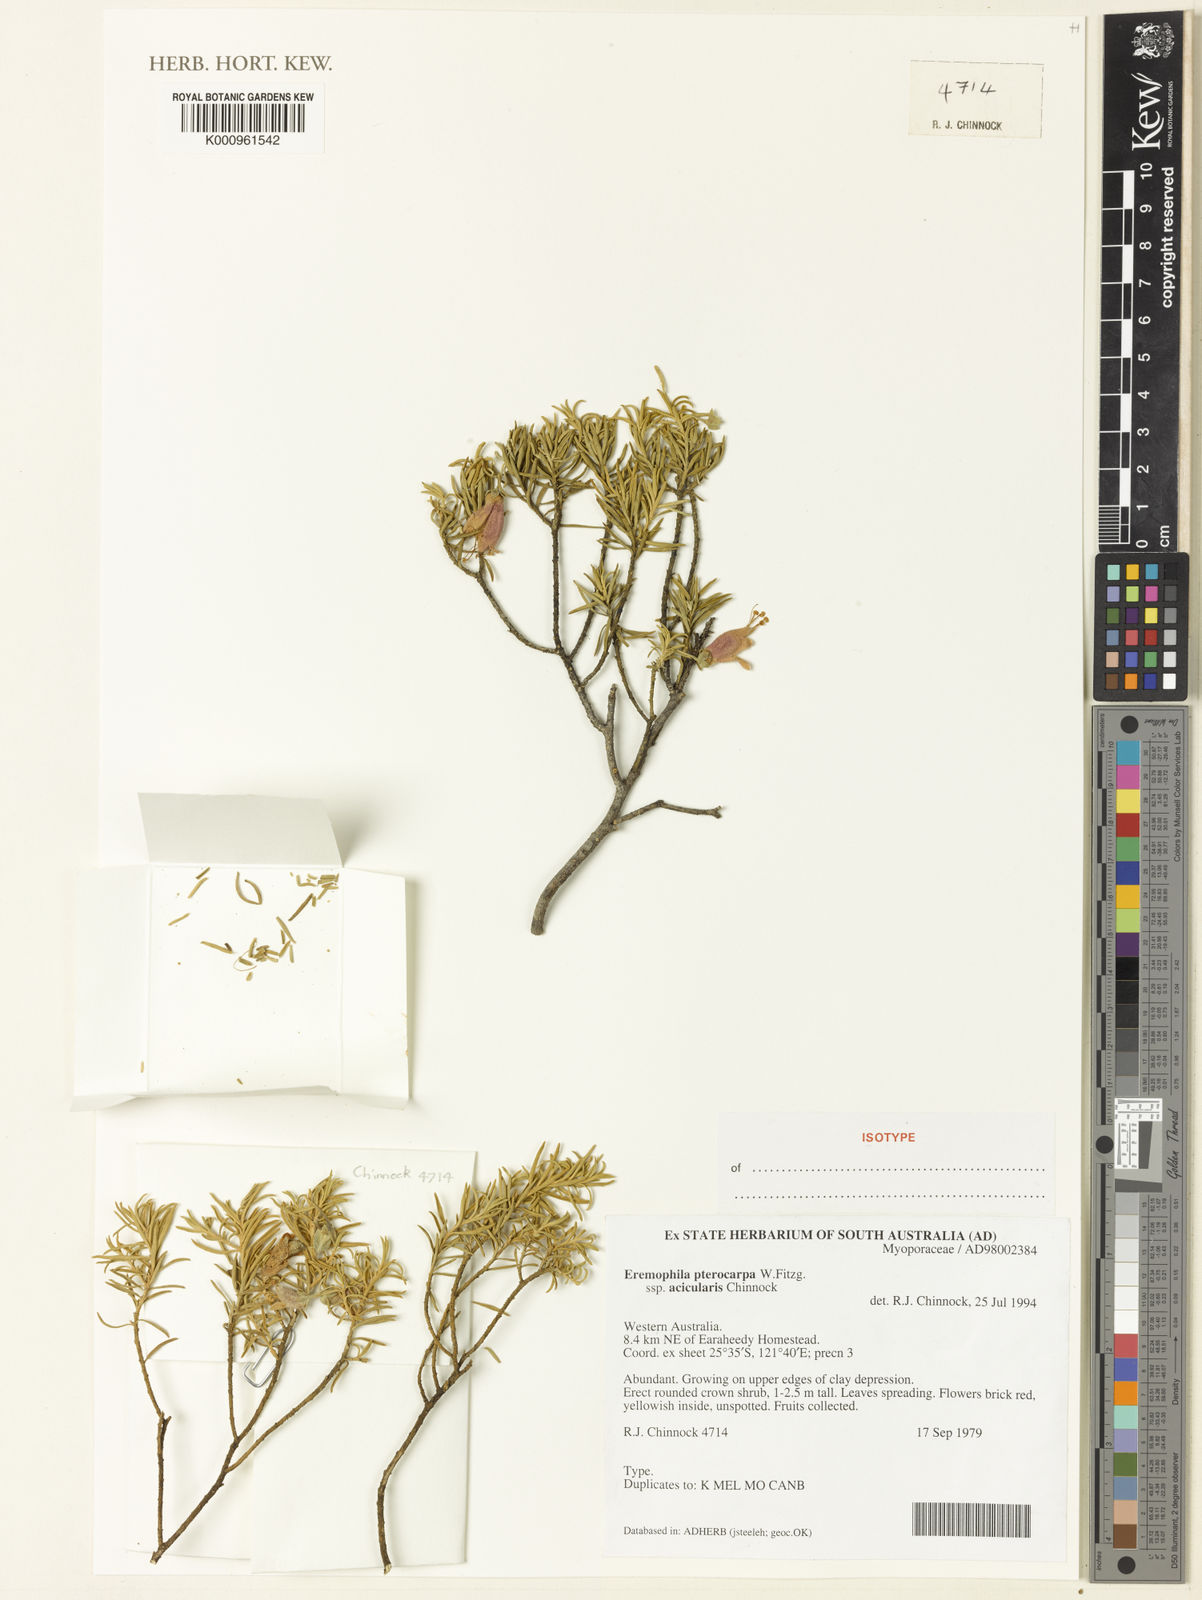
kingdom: Plantae
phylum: Tracheophyta
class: Magnoliopsida
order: Lamiales
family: Scrophulariaceae
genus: Eremophila
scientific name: Eremophila pterocarpa
